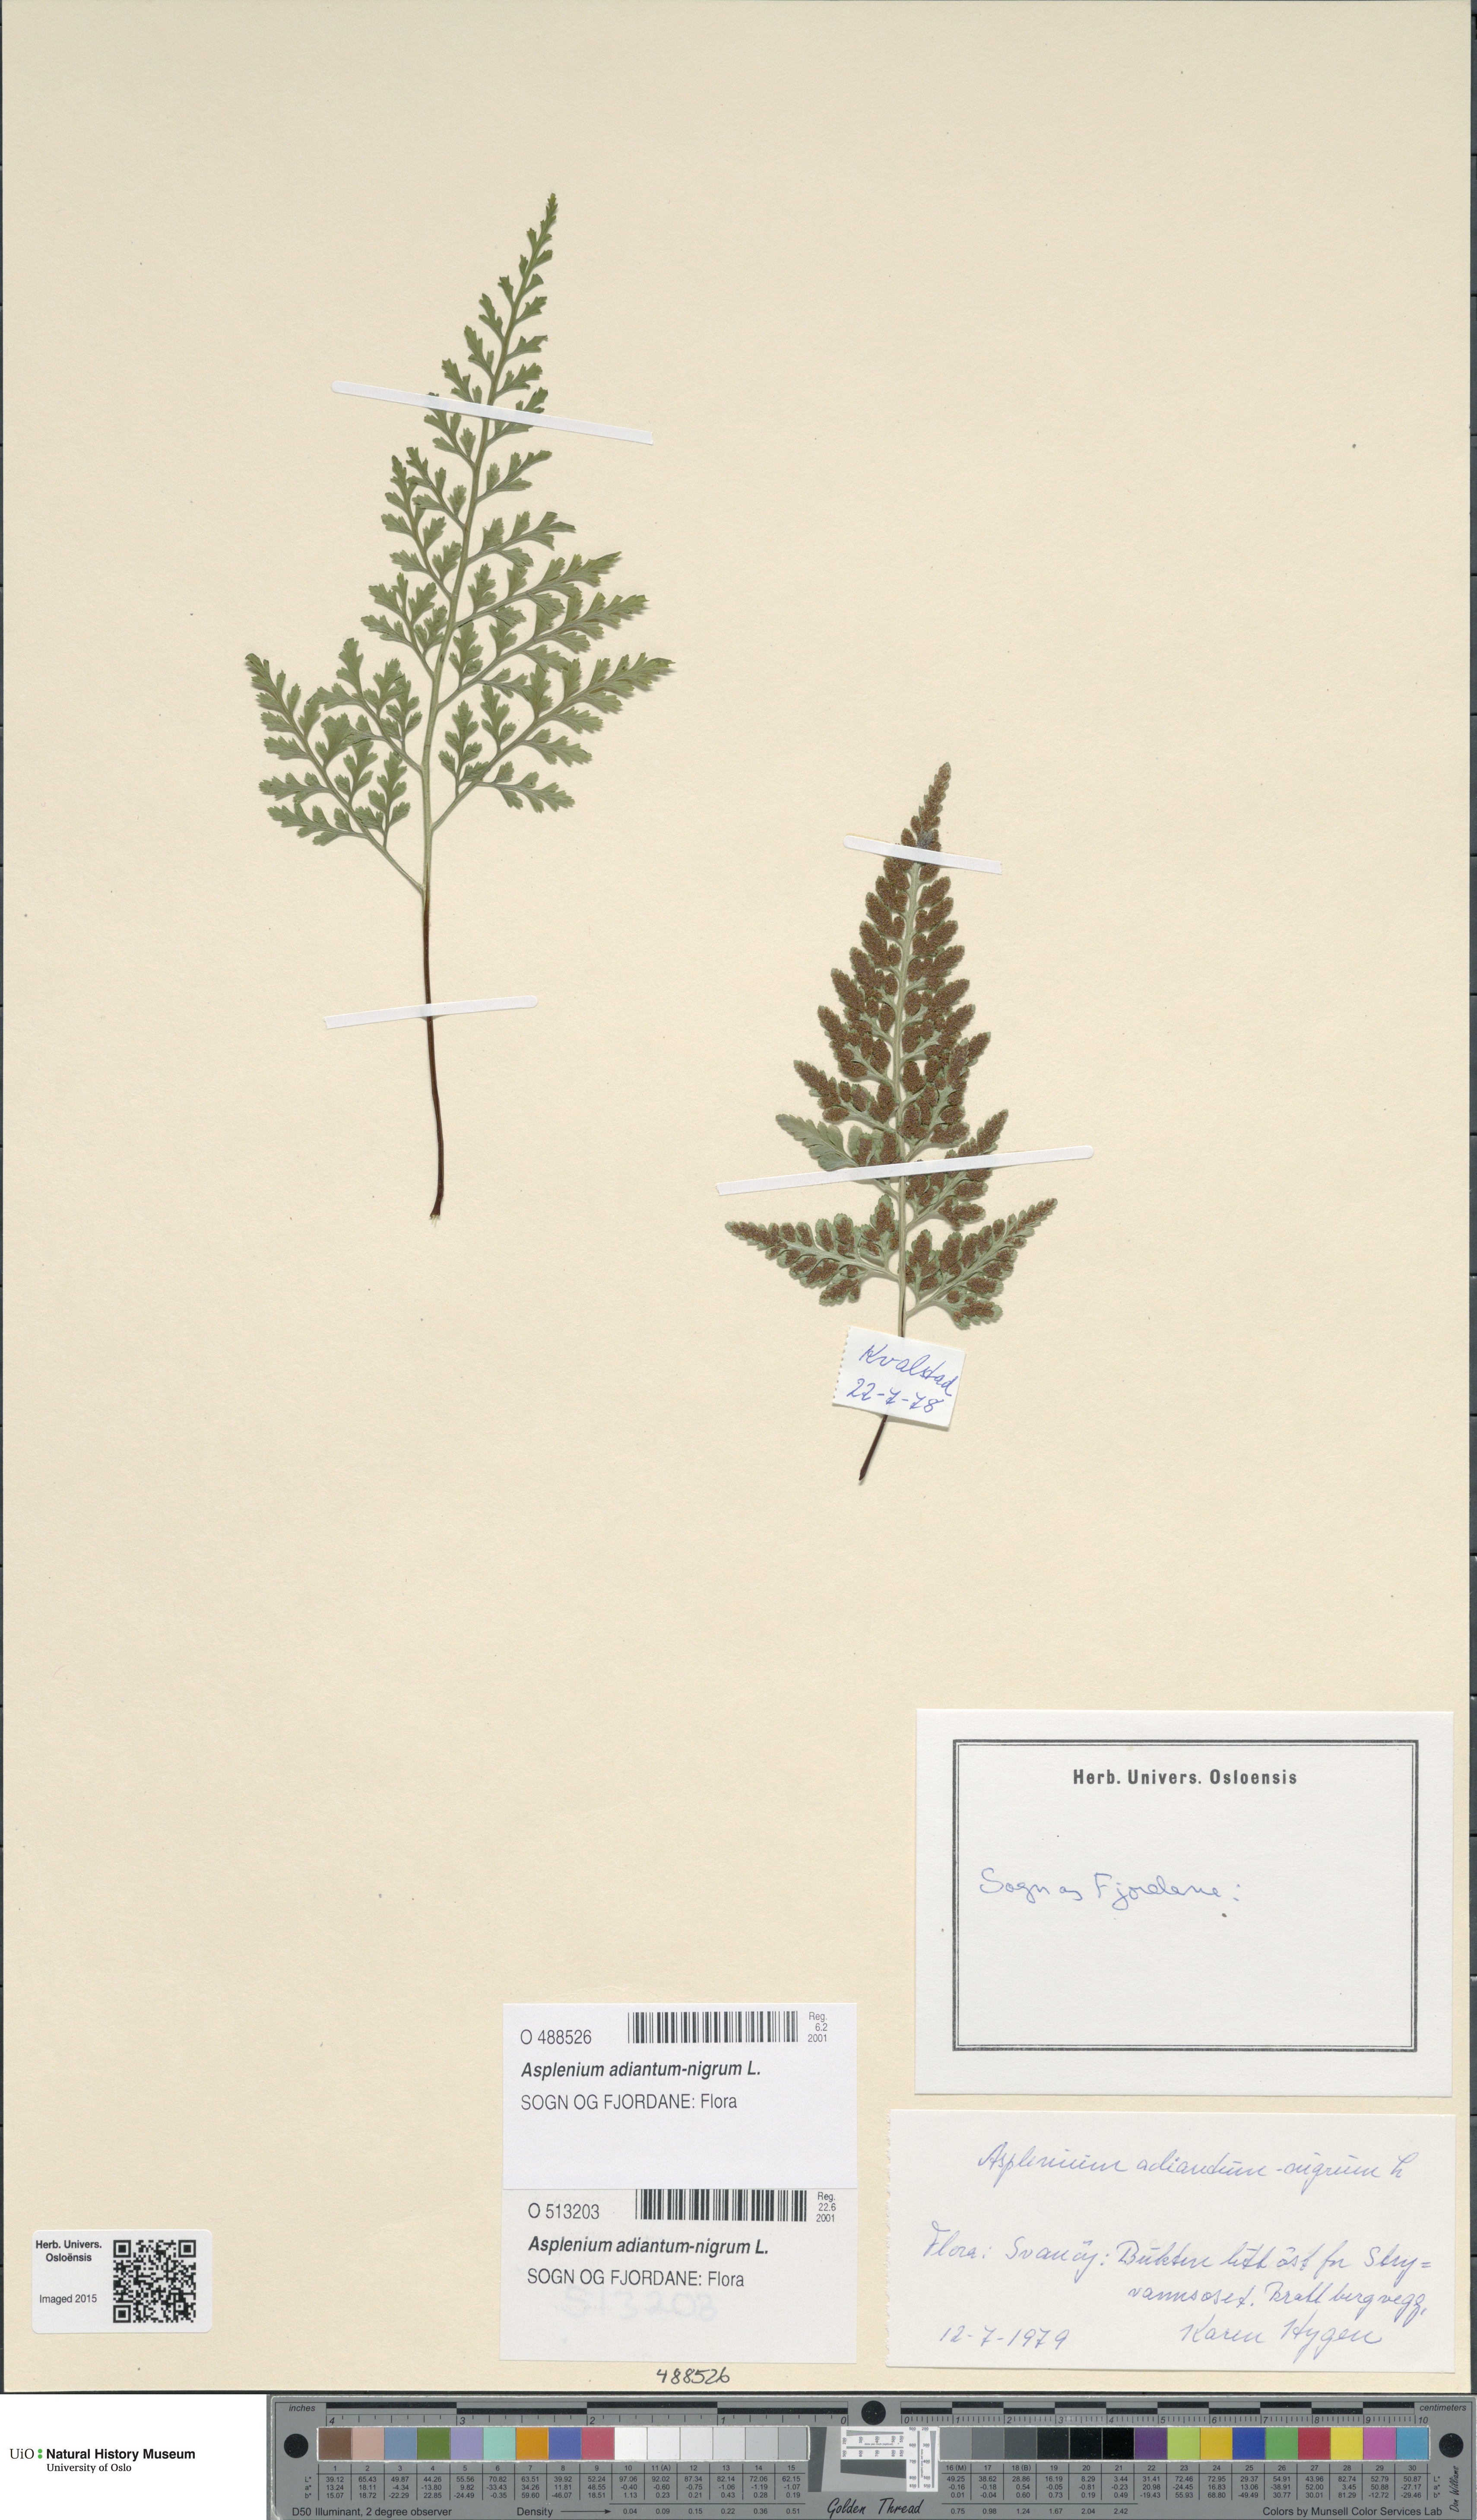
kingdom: Plantae
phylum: Tracheophyta
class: Polypodiopsida
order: Polypodiales
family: Aspleniaceae
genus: Asplenium
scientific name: Asplenium adiantum-nigrum
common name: Black spleenwort
